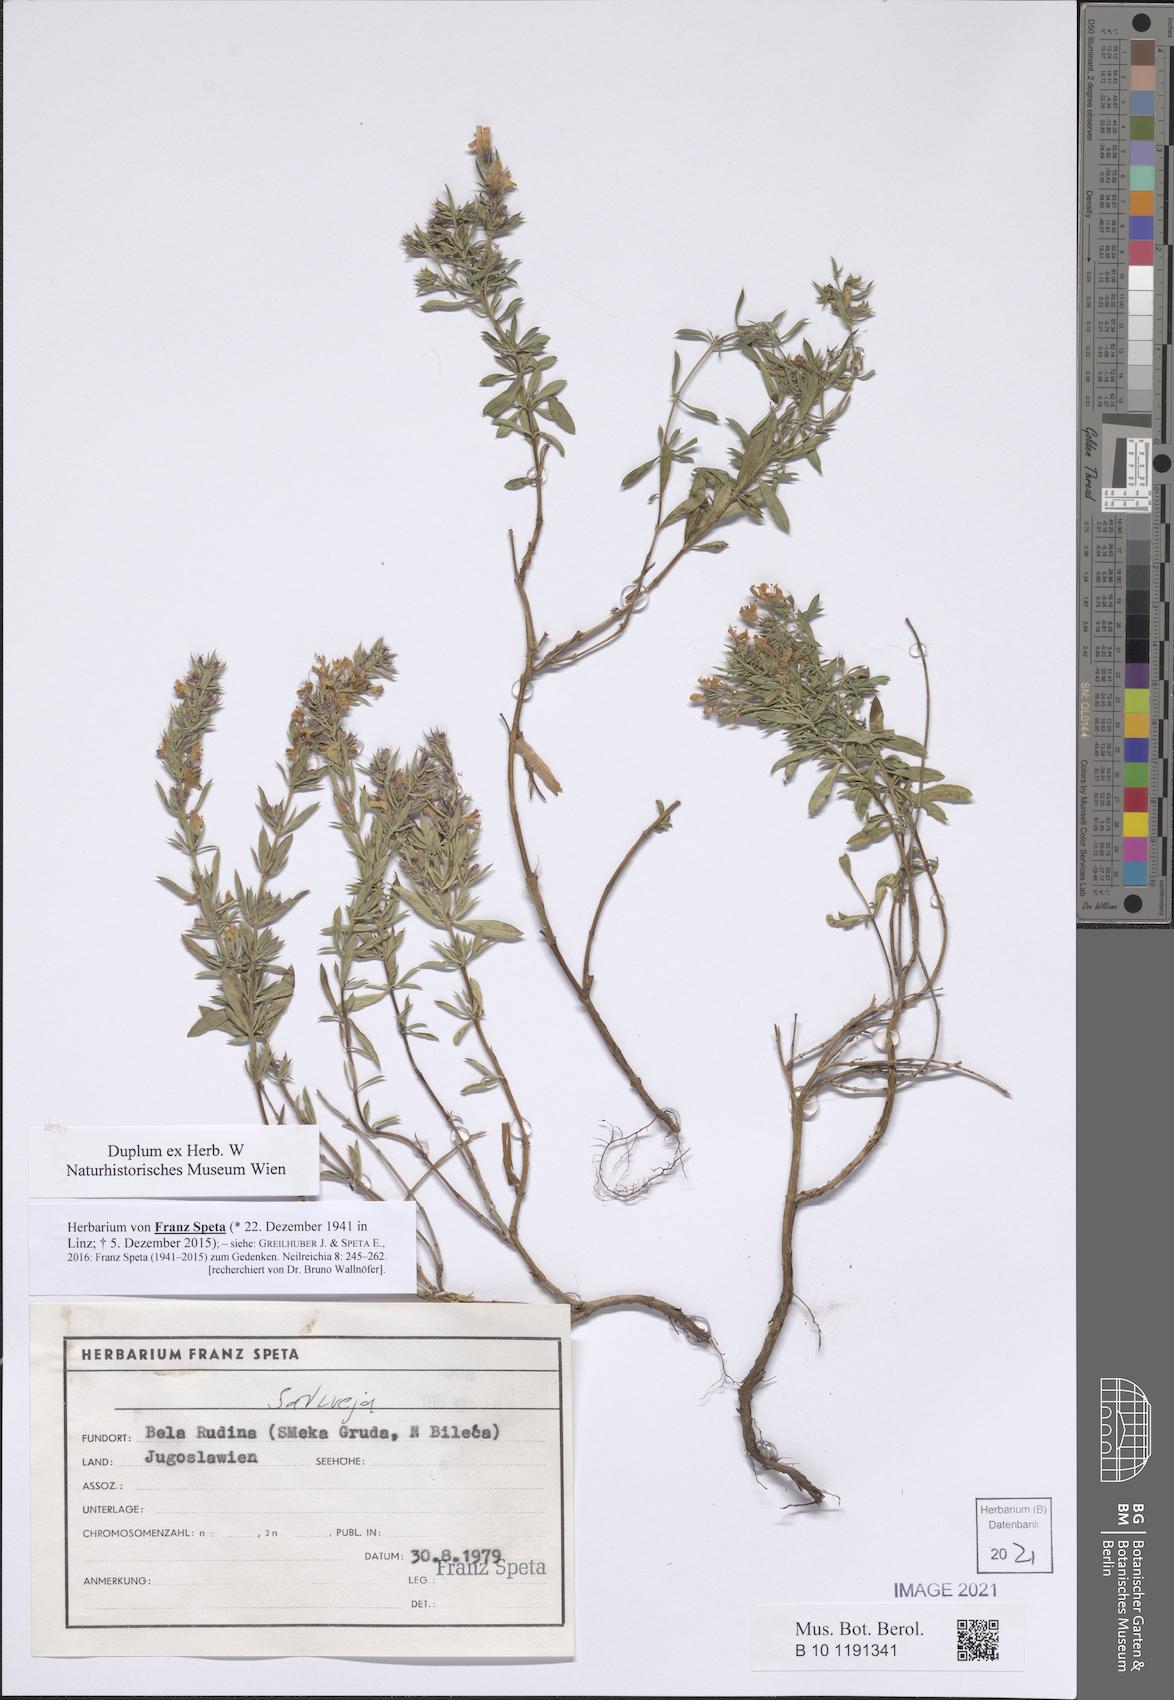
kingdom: Plantae
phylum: Tracheophyta
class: Magnoliopsida
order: Lamiales
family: Lamiaceae
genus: Satureja
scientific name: Satureja
